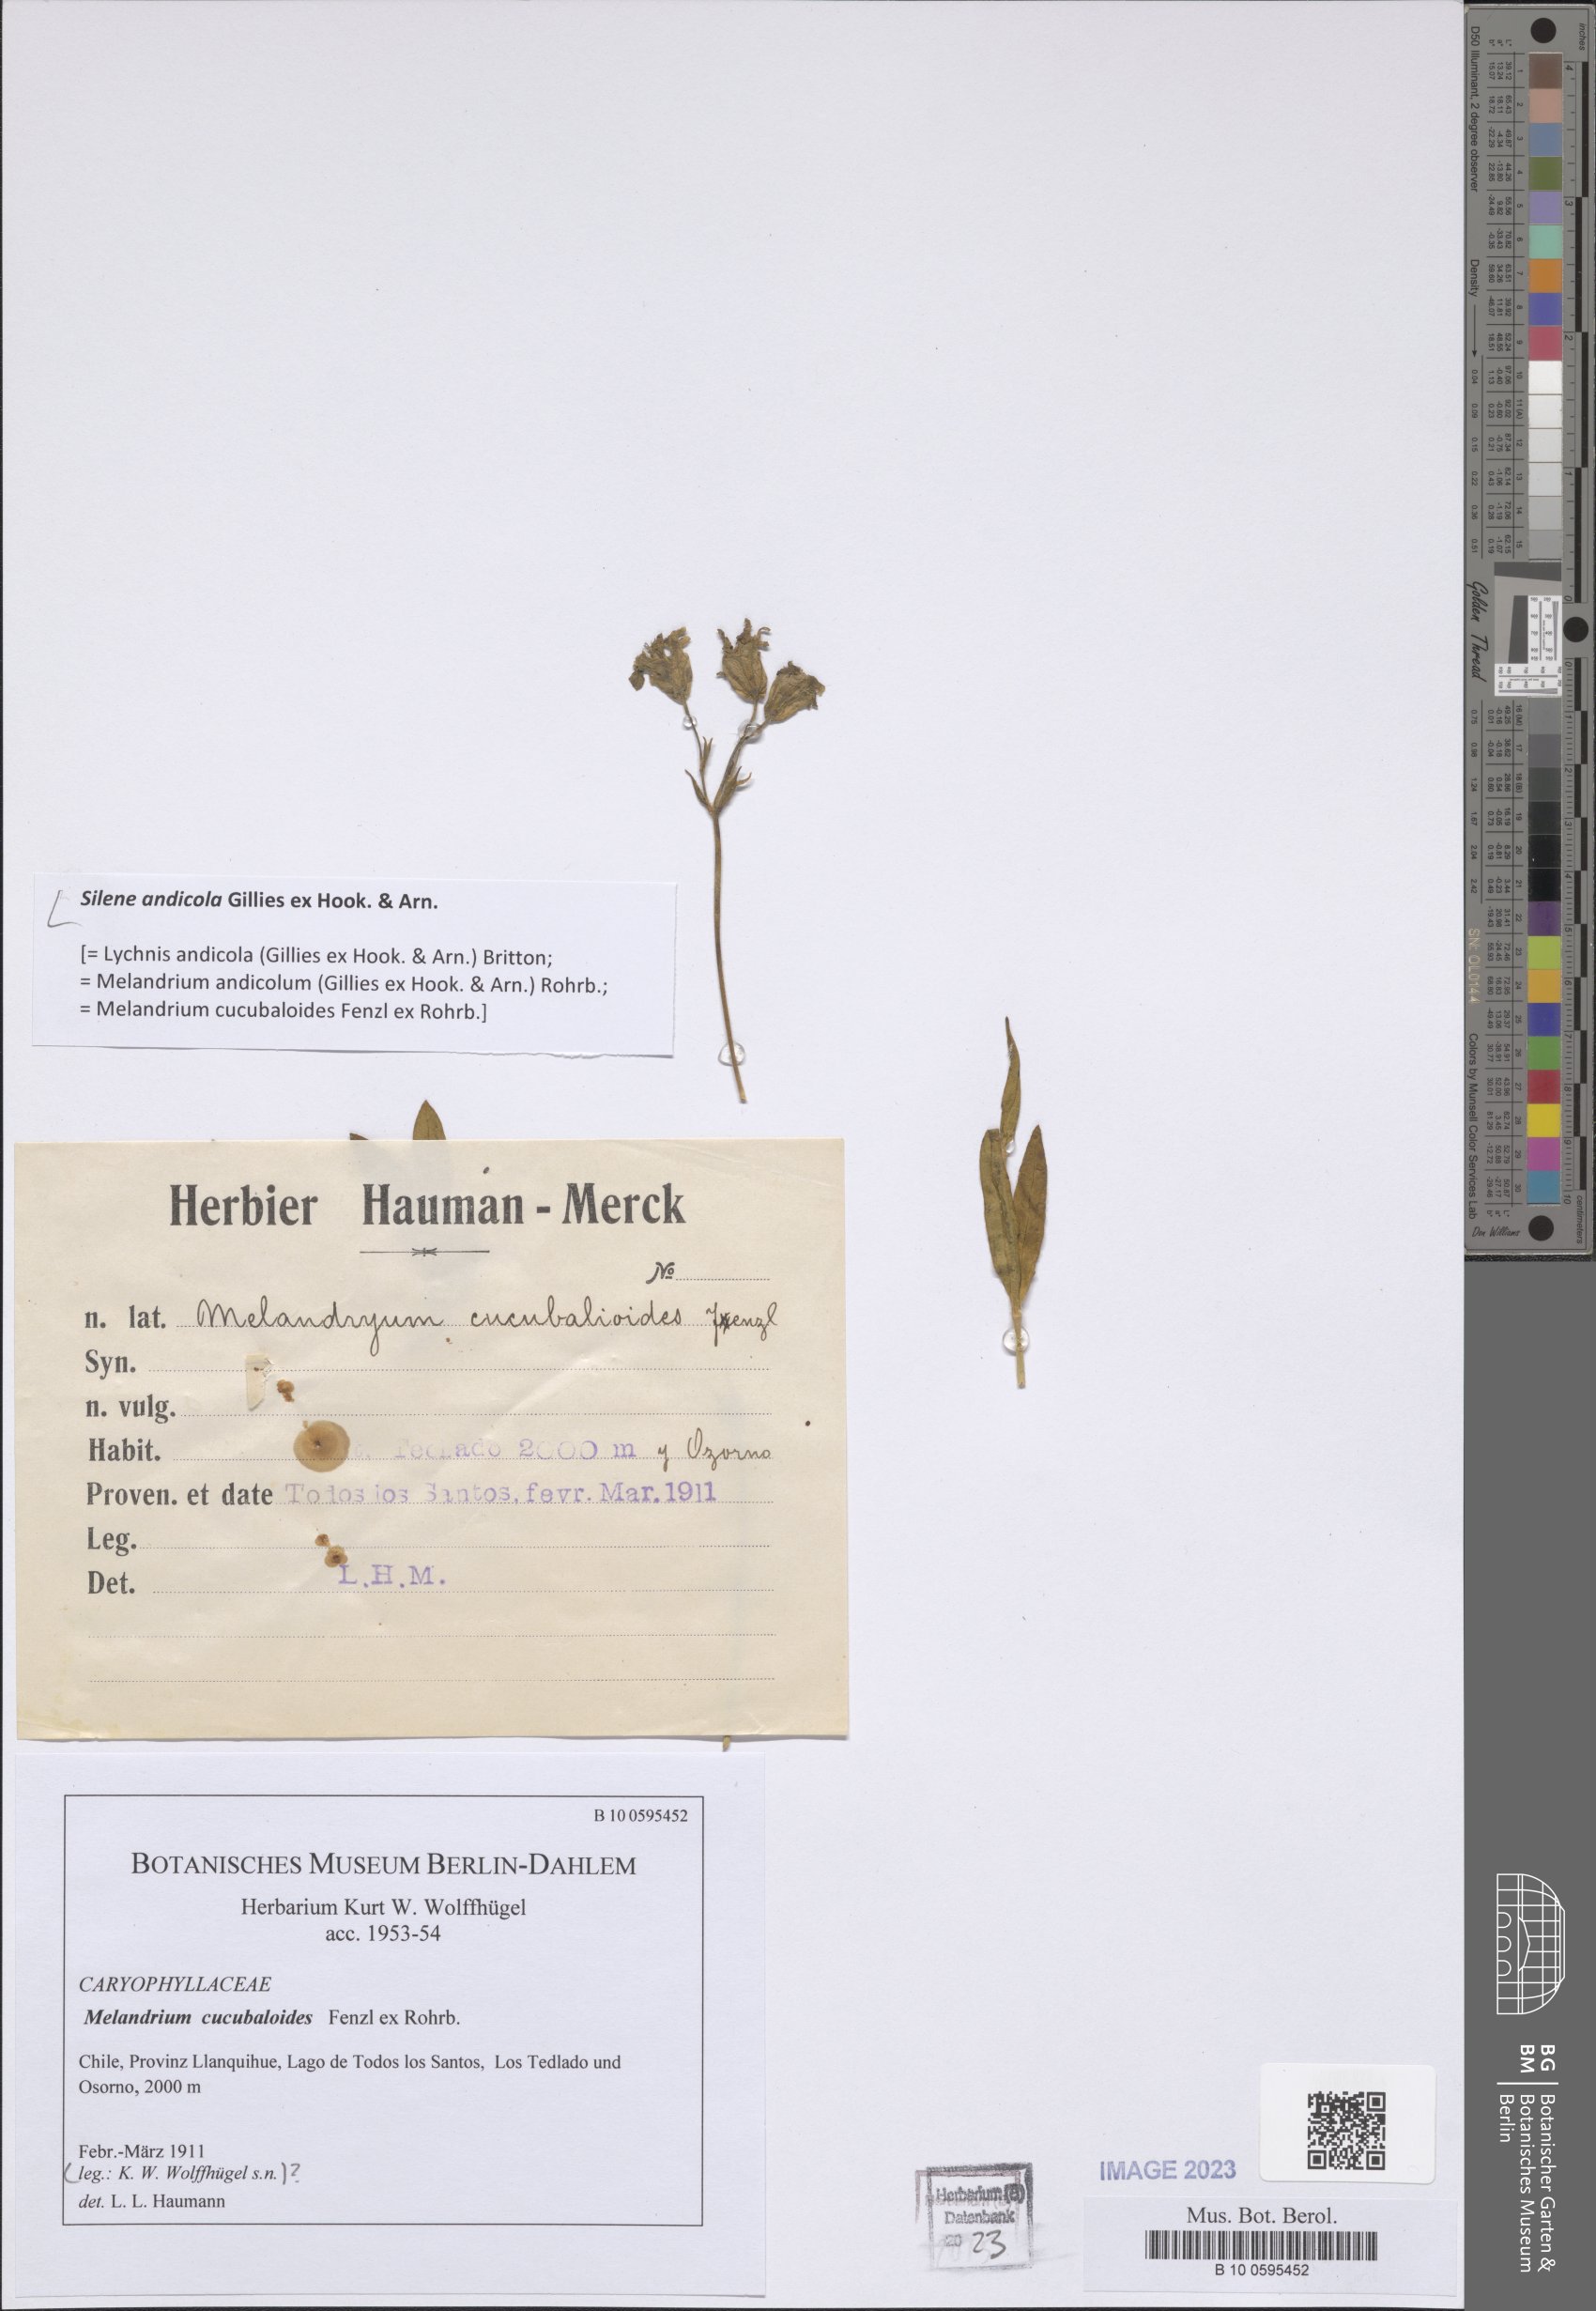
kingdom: Plantae
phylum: Tracheophyta
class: Magnoliopsida
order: Caryophyllales
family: Caryophyllaceae
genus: Silene
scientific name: Silene andicola
